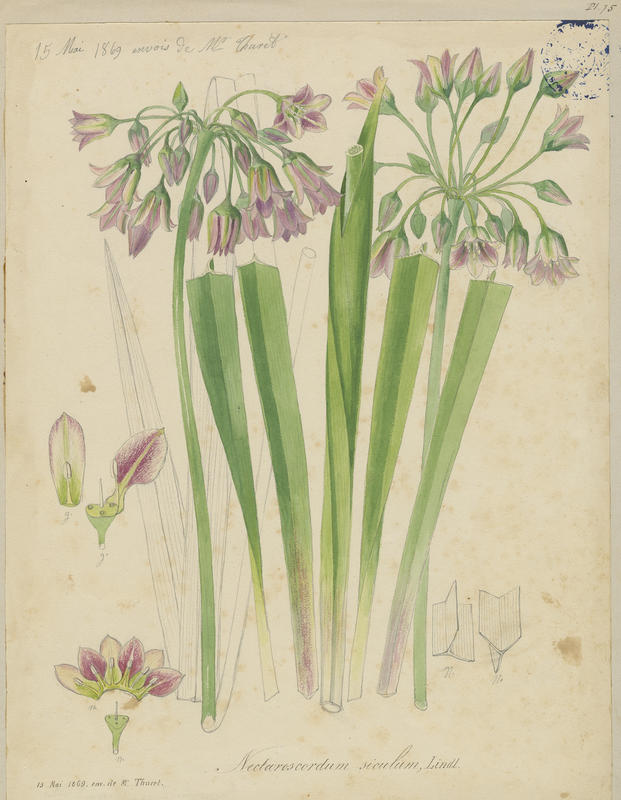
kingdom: Plantae
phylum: Tracheophyta
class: Liliopsida
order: Asparagales
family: Amaryllidaceae
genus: Allium
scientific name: Allium siculum
